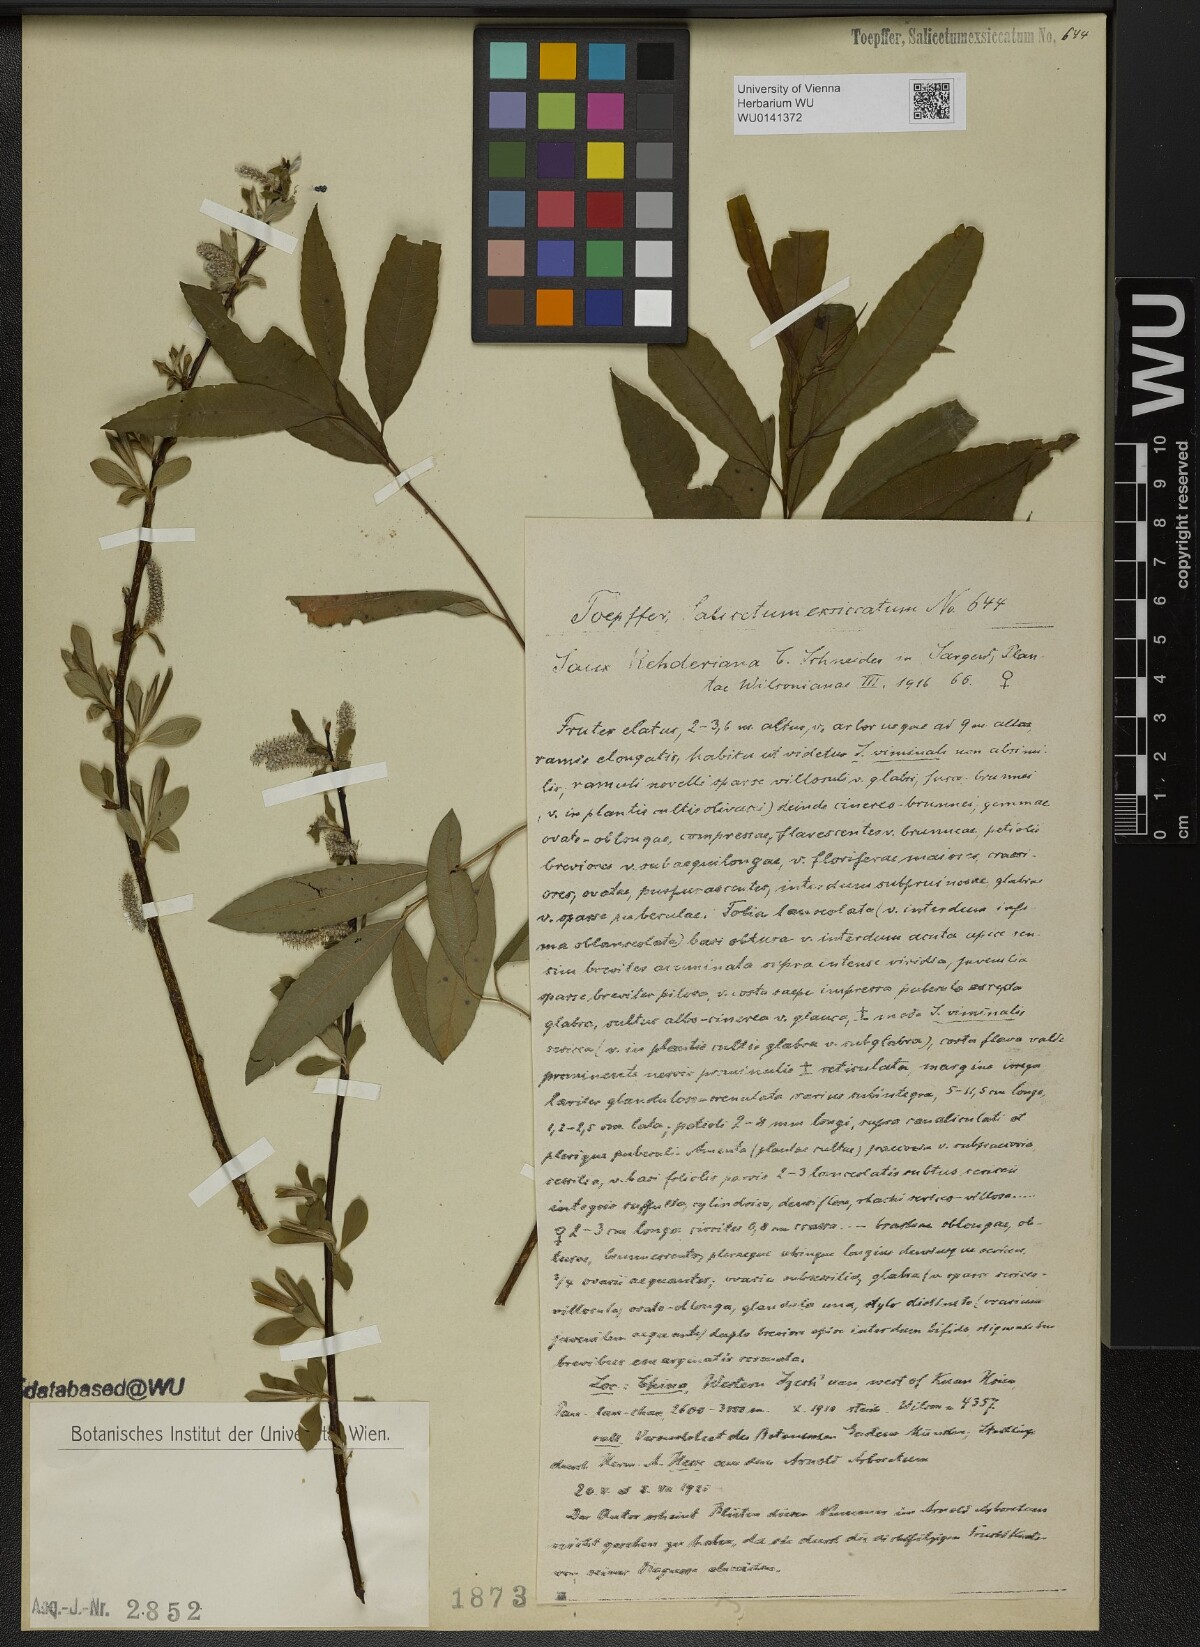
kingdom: Plantae
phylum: Tracheophyta
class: Magnoliopsida
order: Malpighiales
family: Salicaceae
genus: Salix
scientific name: Salix rehderiana
